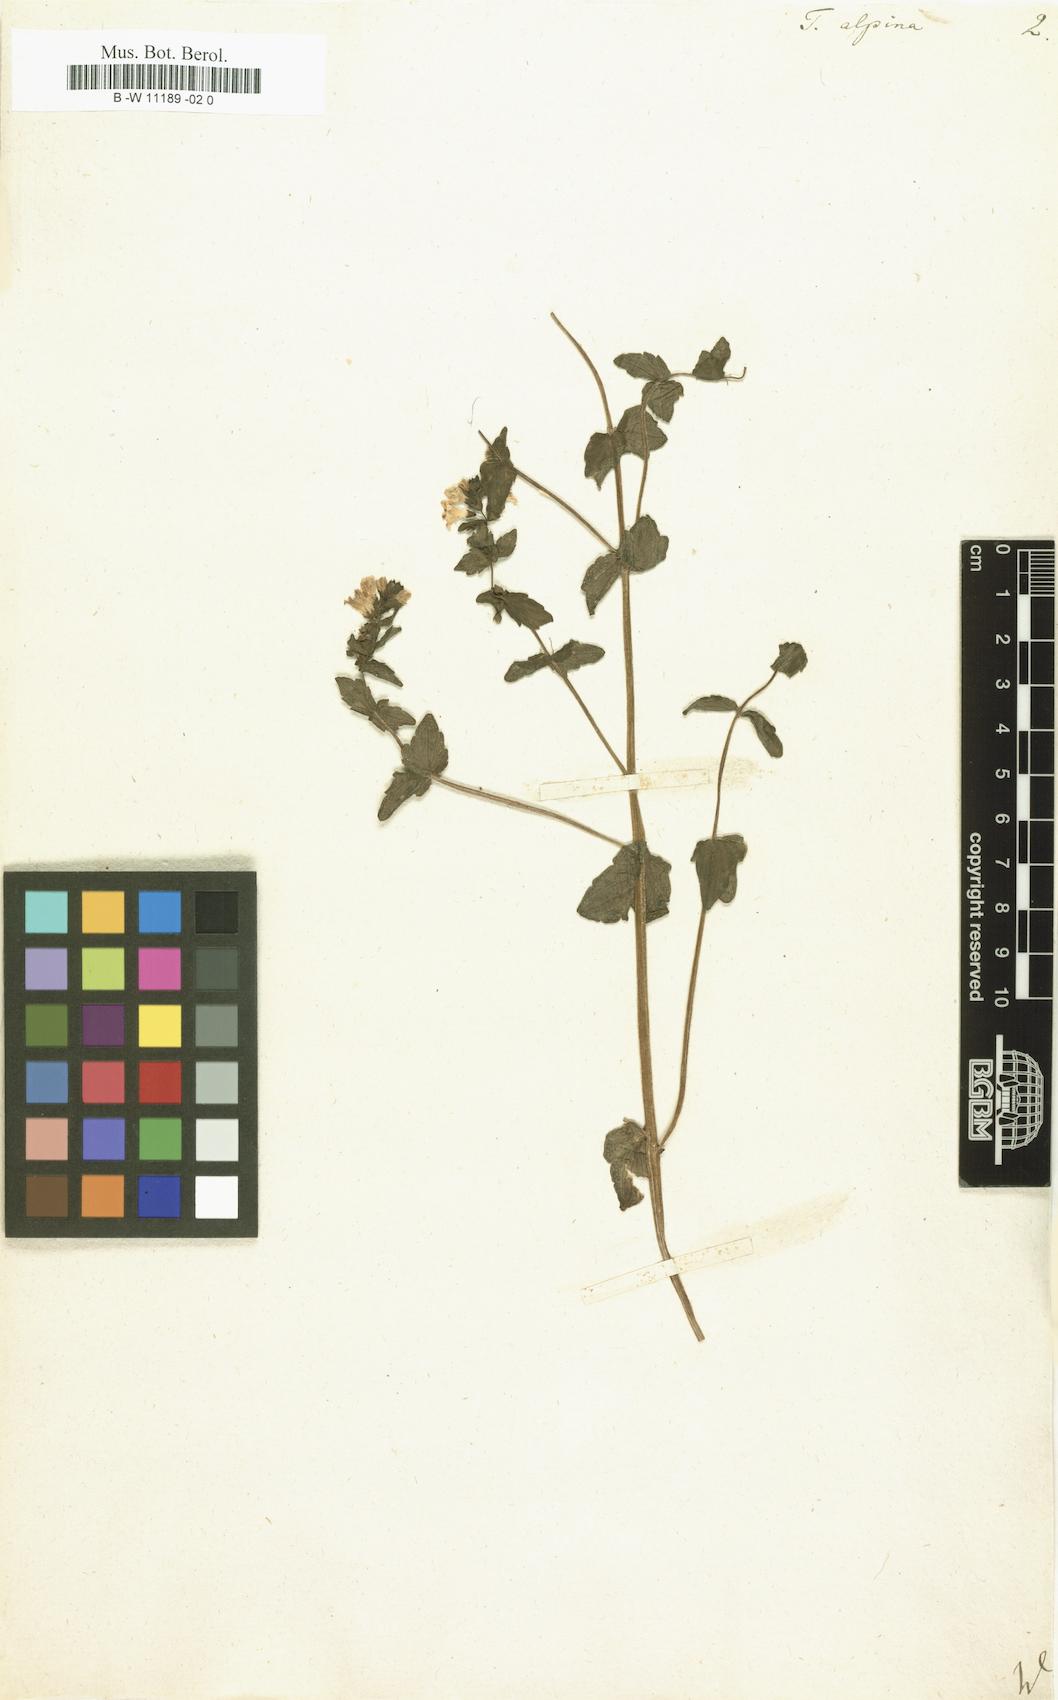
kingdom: Plantae
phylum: Tracheophyta
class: Magnoliopsida
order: Lamiales
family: Orobanchaceae
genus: Tozzia
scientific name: Tozzia alpina
